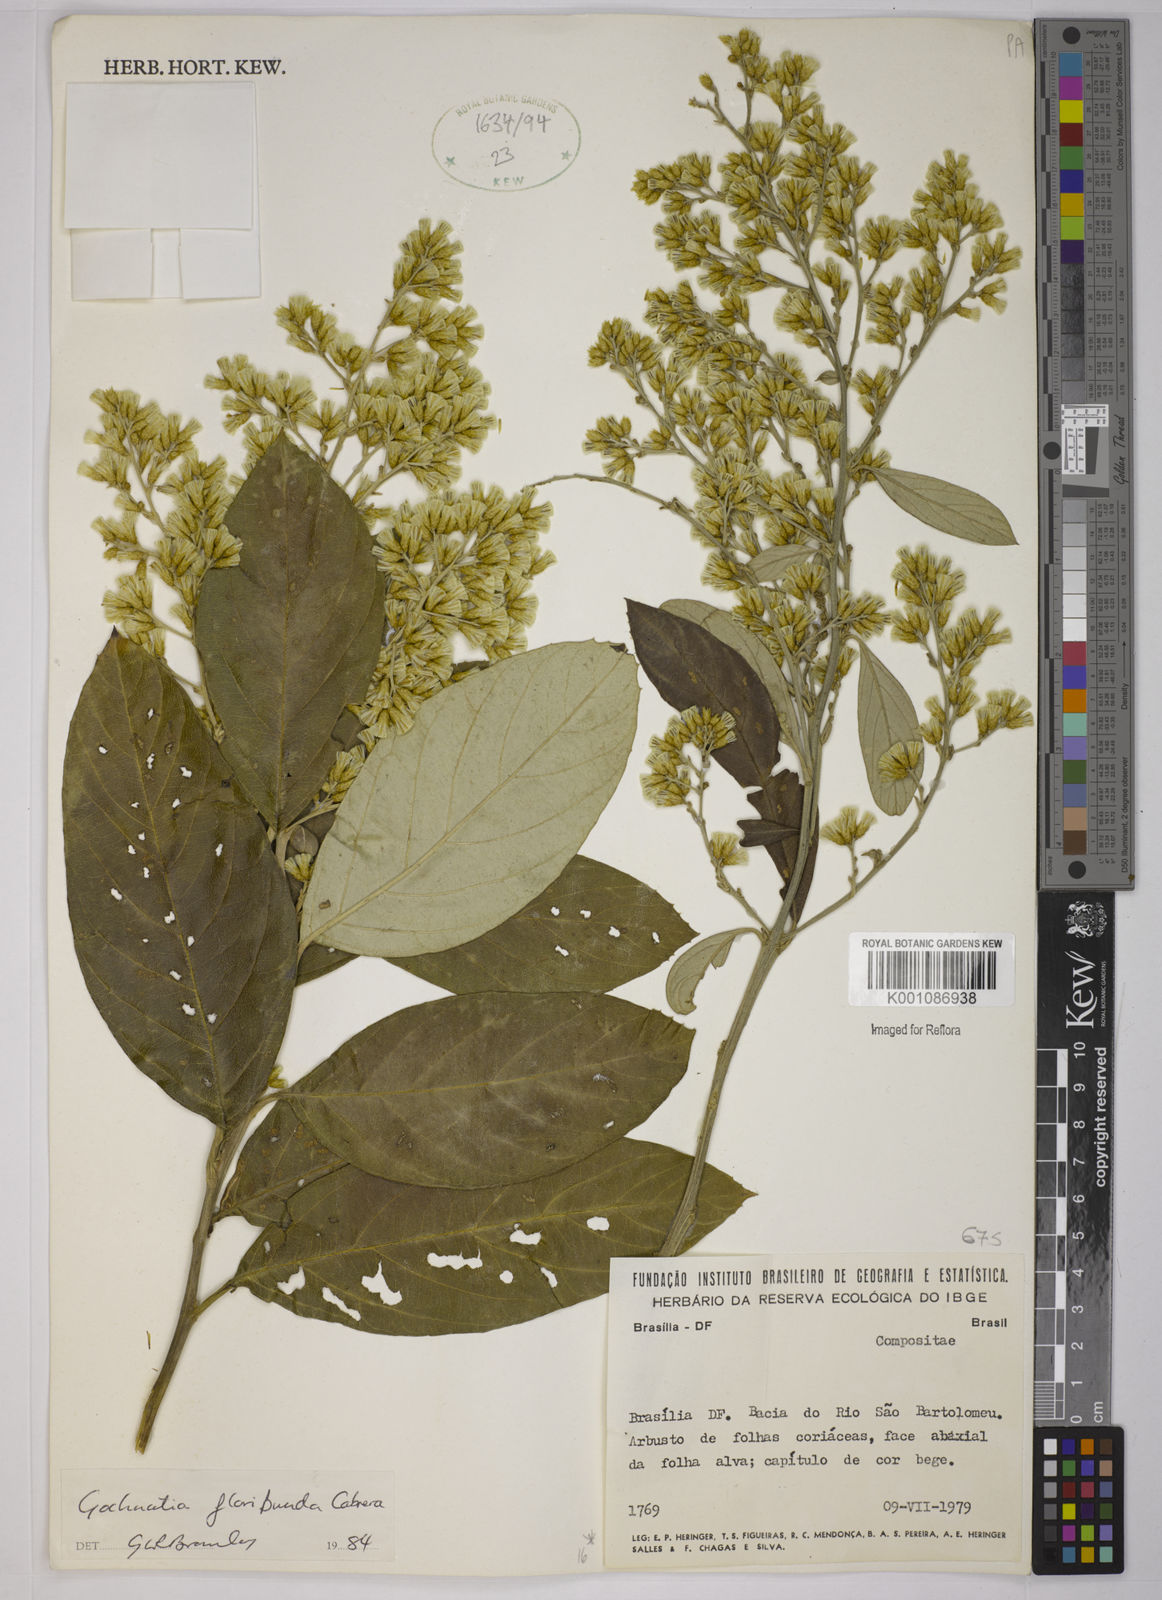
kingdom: Plantae
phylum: Tracheophyta
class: Magnoliopsida
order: Asterales
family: Asteraceae
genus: Moquiniastrum
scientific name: Moquiniastrum floribundum
